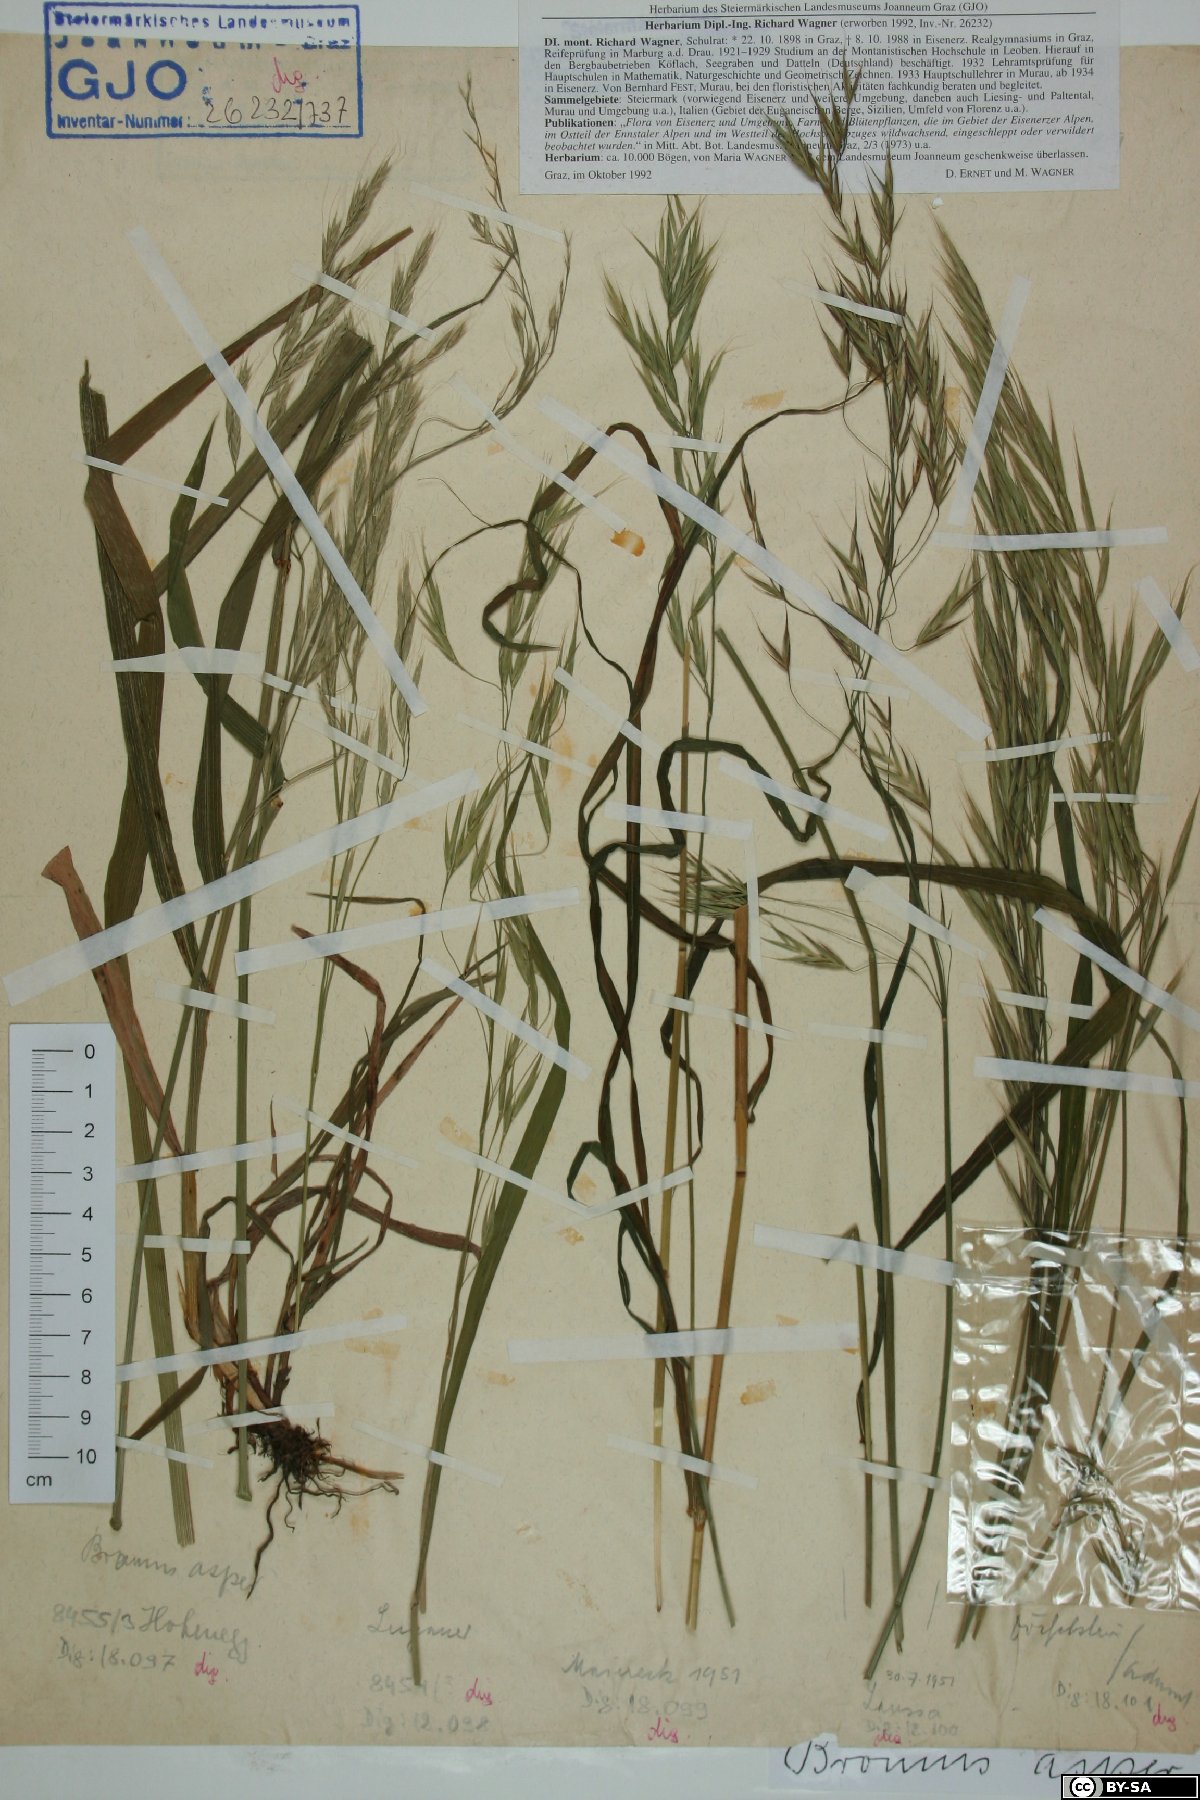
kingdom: Plantae
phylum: Tracheophyta
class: Liliopsida
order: Poales
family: Poaceae
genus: Bromus
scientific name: Bromus ramosus
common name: Hairy brome
